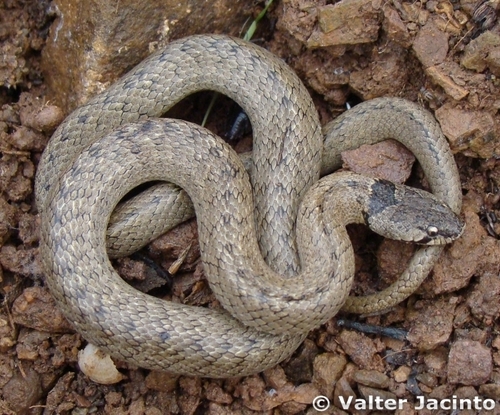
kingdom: Animalia
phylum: Chordata
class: Squamata
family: Colubridae
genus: Macroprotodon
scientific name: Macroprotodon brevis
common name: Iberian false smooth snake
